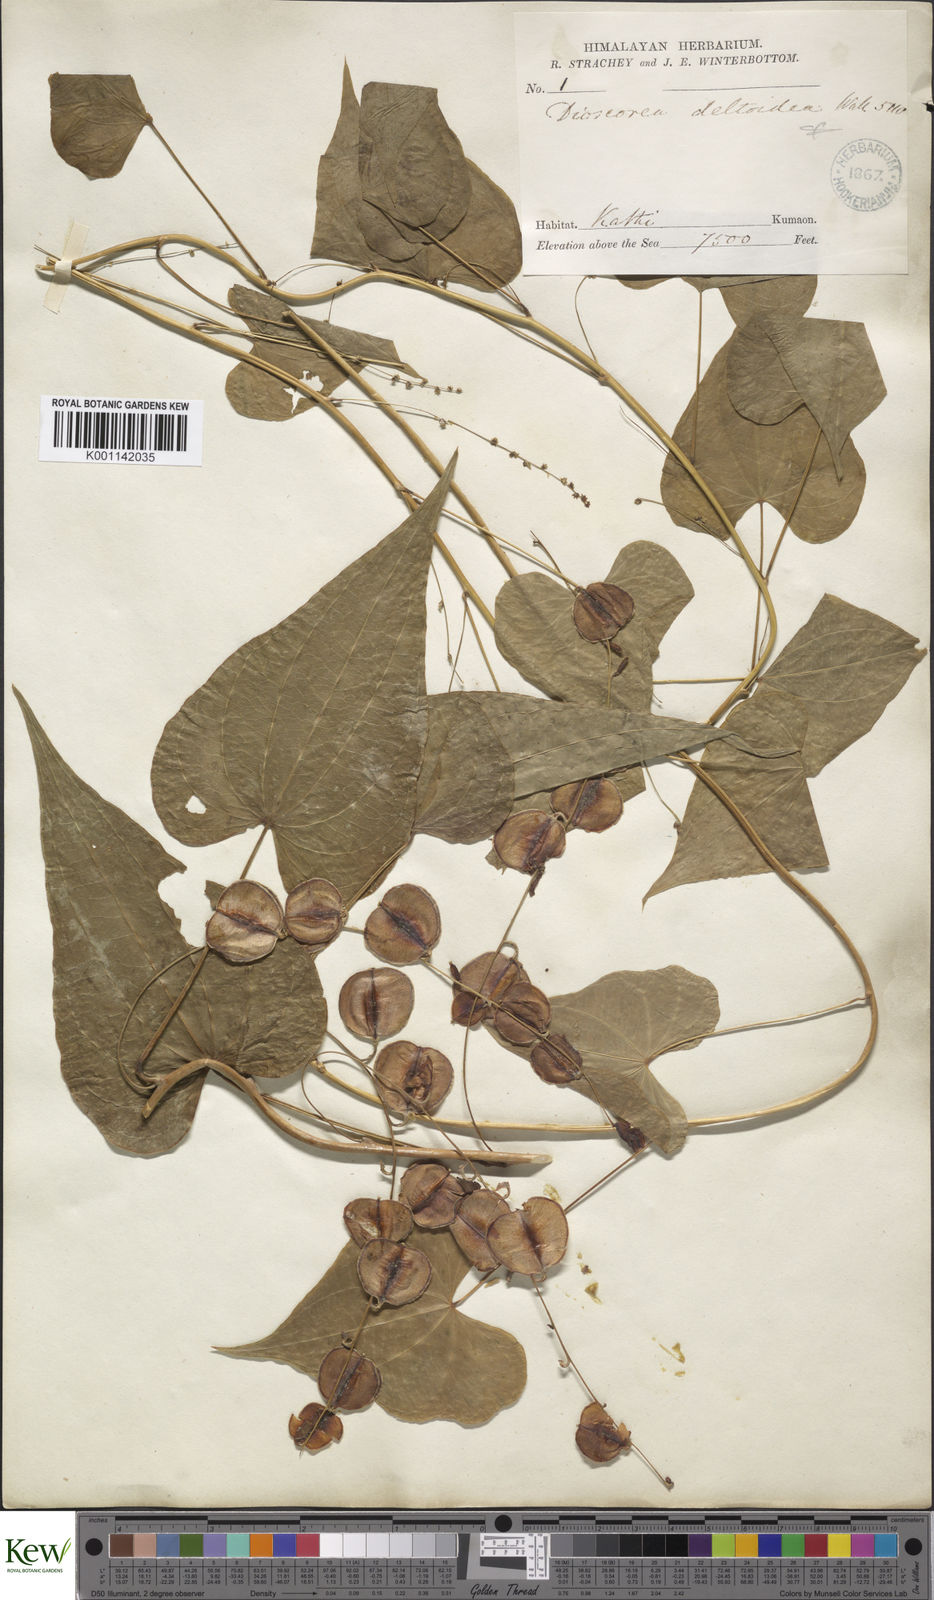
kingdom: Plantae
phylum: Tracheophyta
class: Liliopsida
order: Dioscoreales
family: Dioscoreaceae
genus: Dioscorea
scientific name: Dioscorea deltoidea
